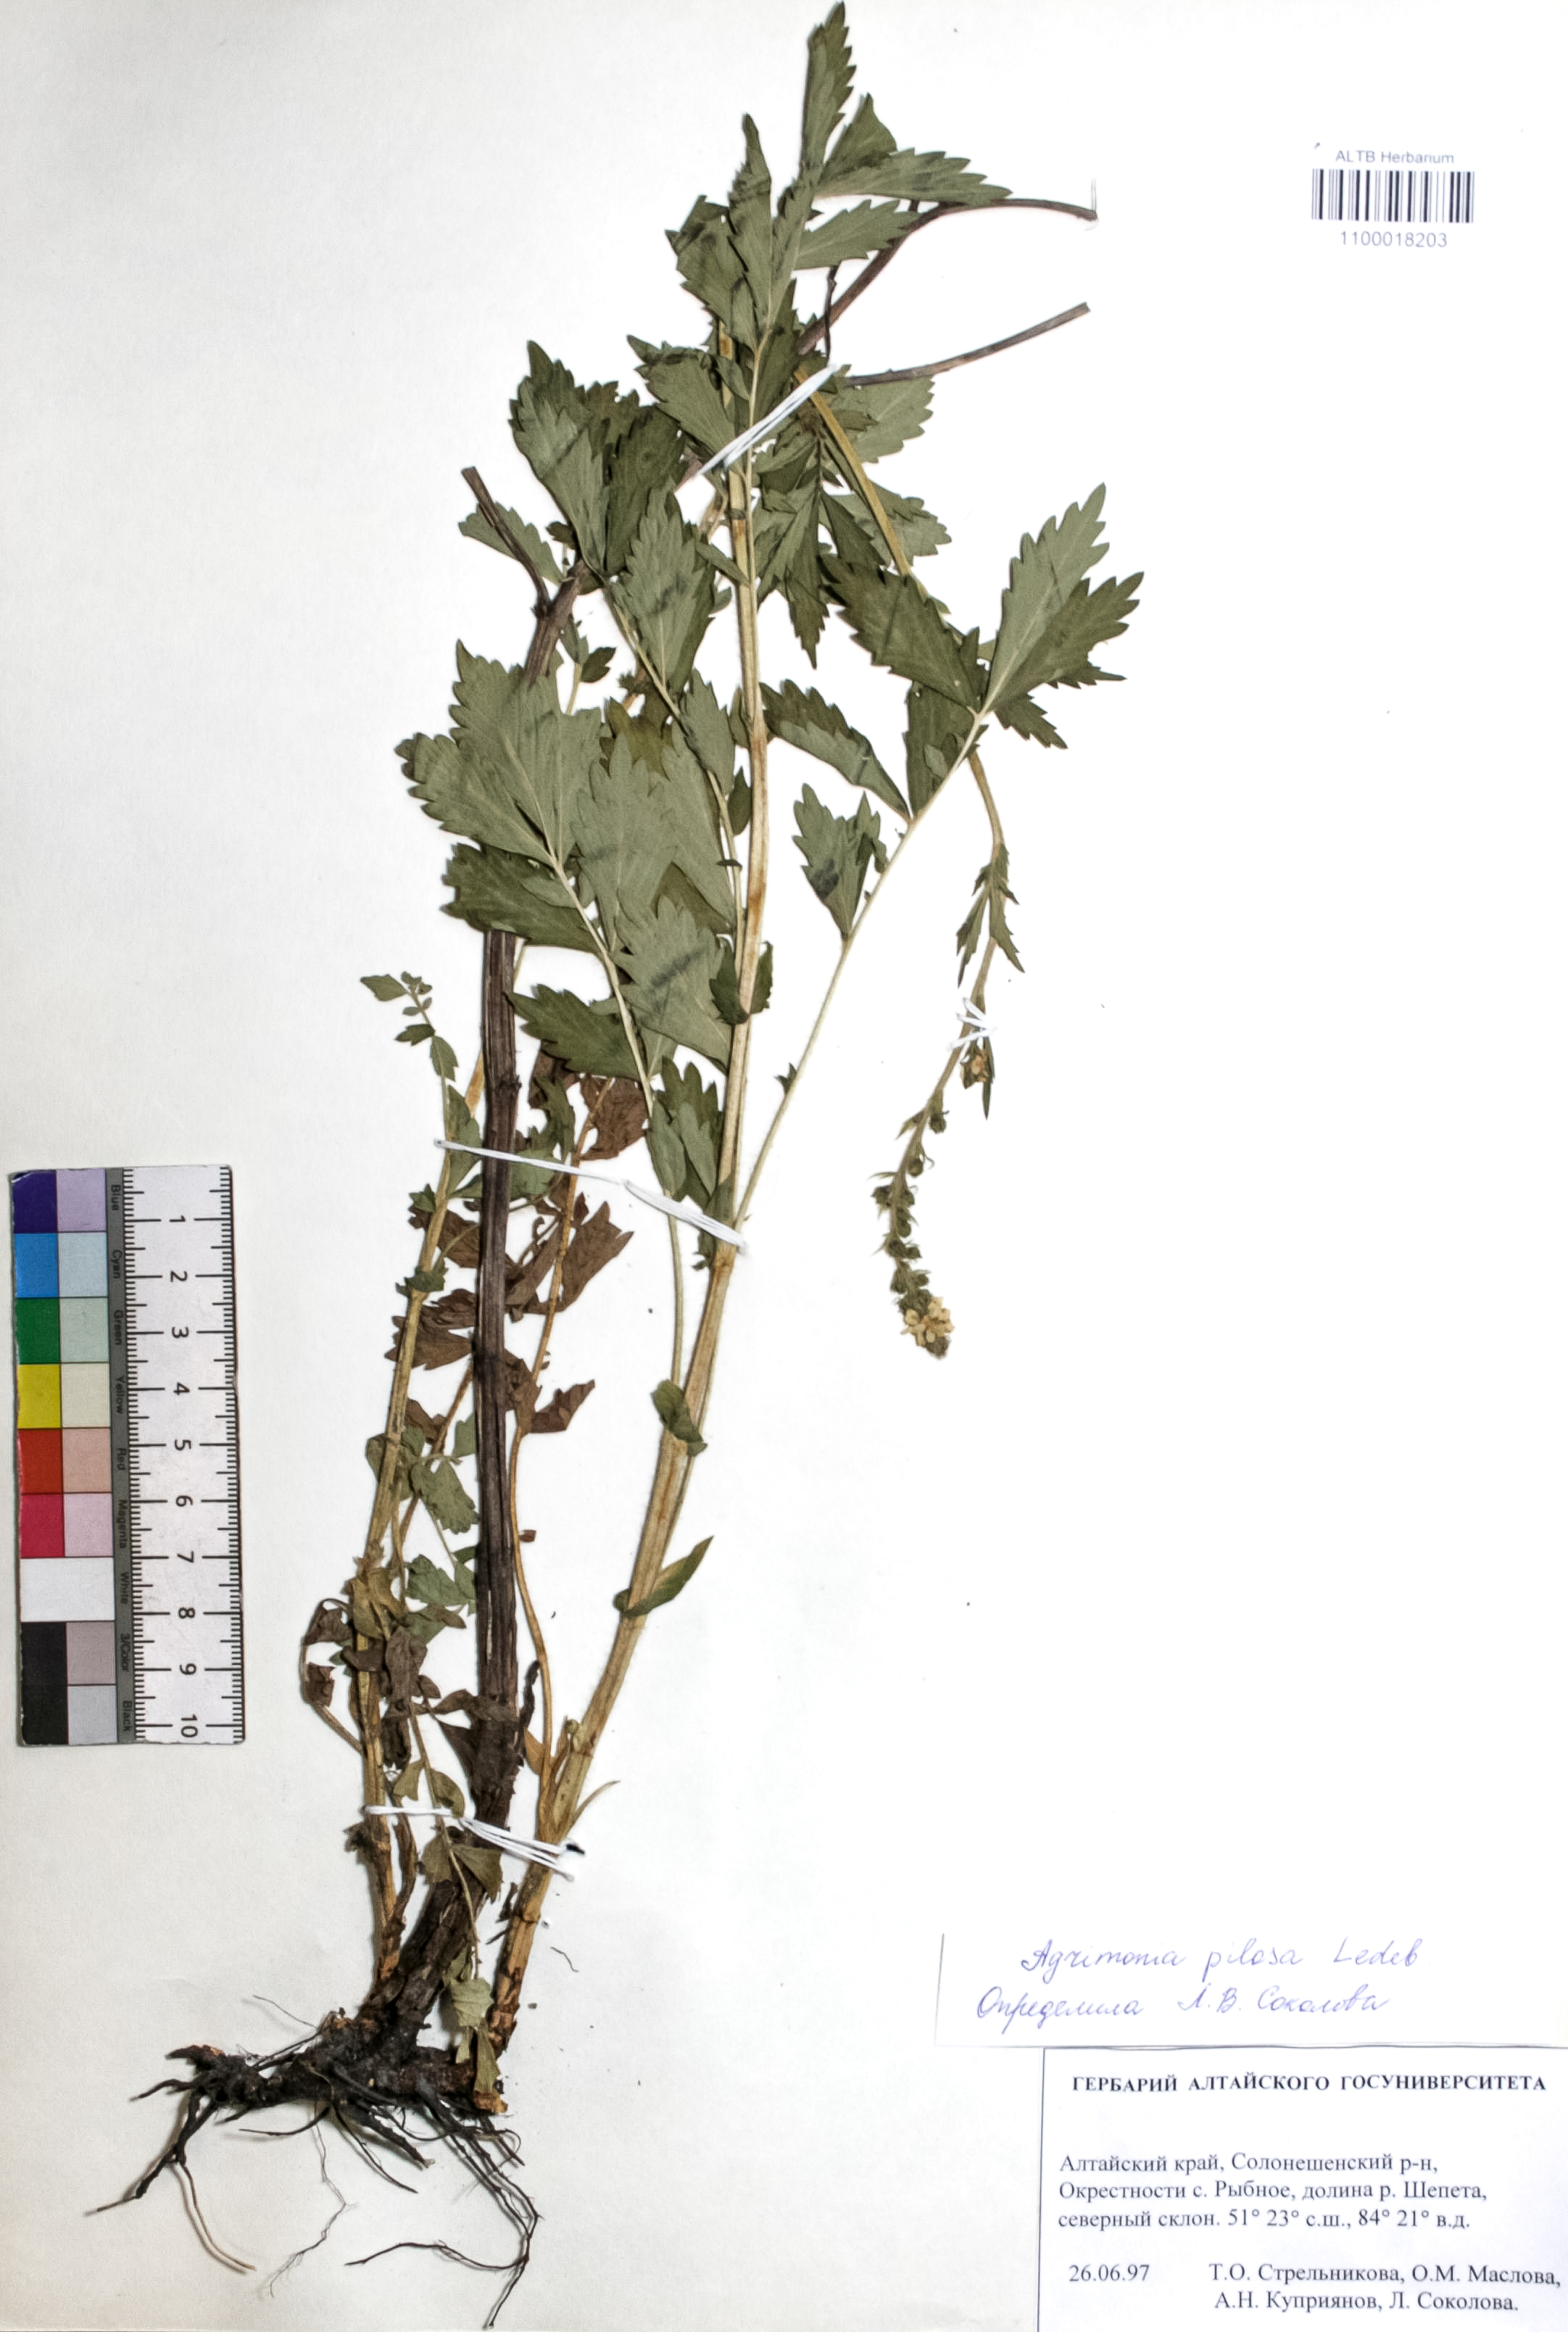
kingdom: Plantae
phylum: Tracheophyta
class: Magnoliopsida
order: Rosales
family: Rosaceae
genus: Agrimonia
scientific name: Agrimonia pilosa
